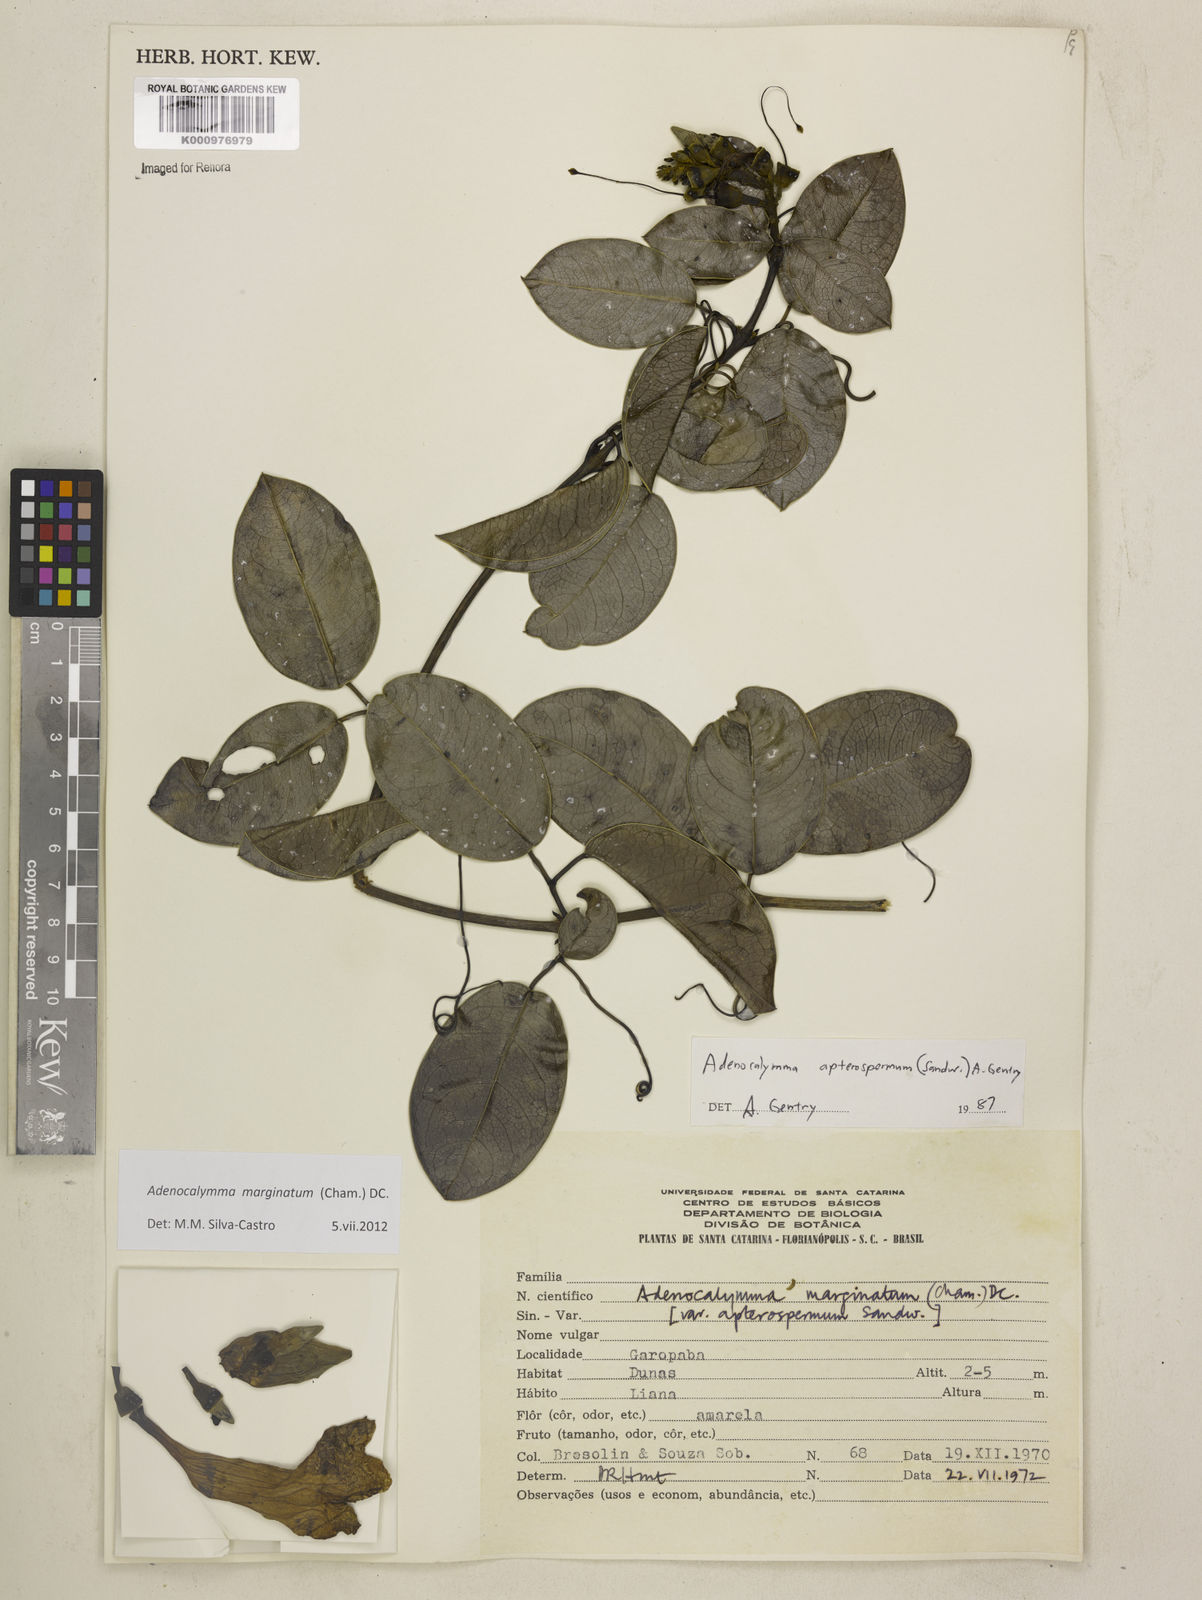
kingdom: Plantae
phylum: Tracheophyta
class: Magnoliopsida
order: Lamiales
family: Bignoniaceae
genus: Adenocalymma
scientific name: Adenocalymma marginatum
